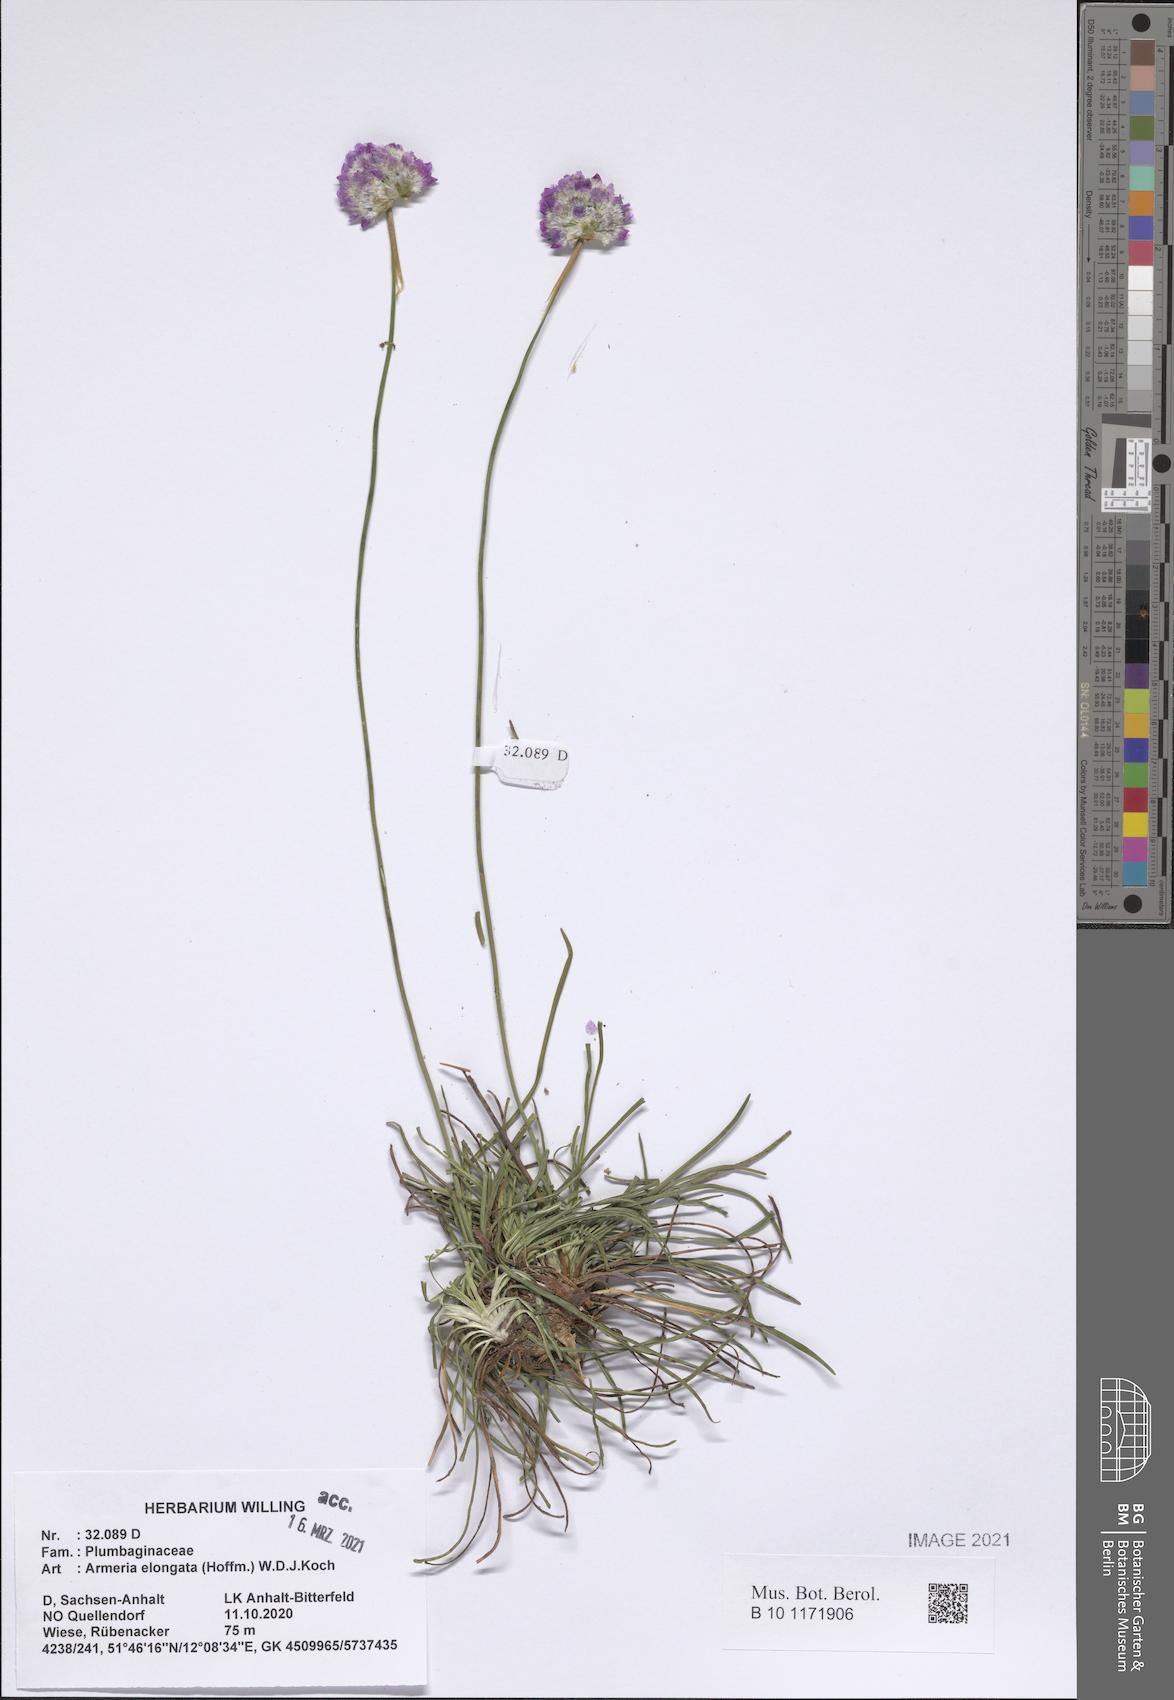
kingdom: Plantae
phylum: Tracheophyta
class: Magnoliopsida
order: Caryophyllales
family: Plumbaginaceae
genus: Armeria
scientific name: Armeria maritima
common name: Thrift
